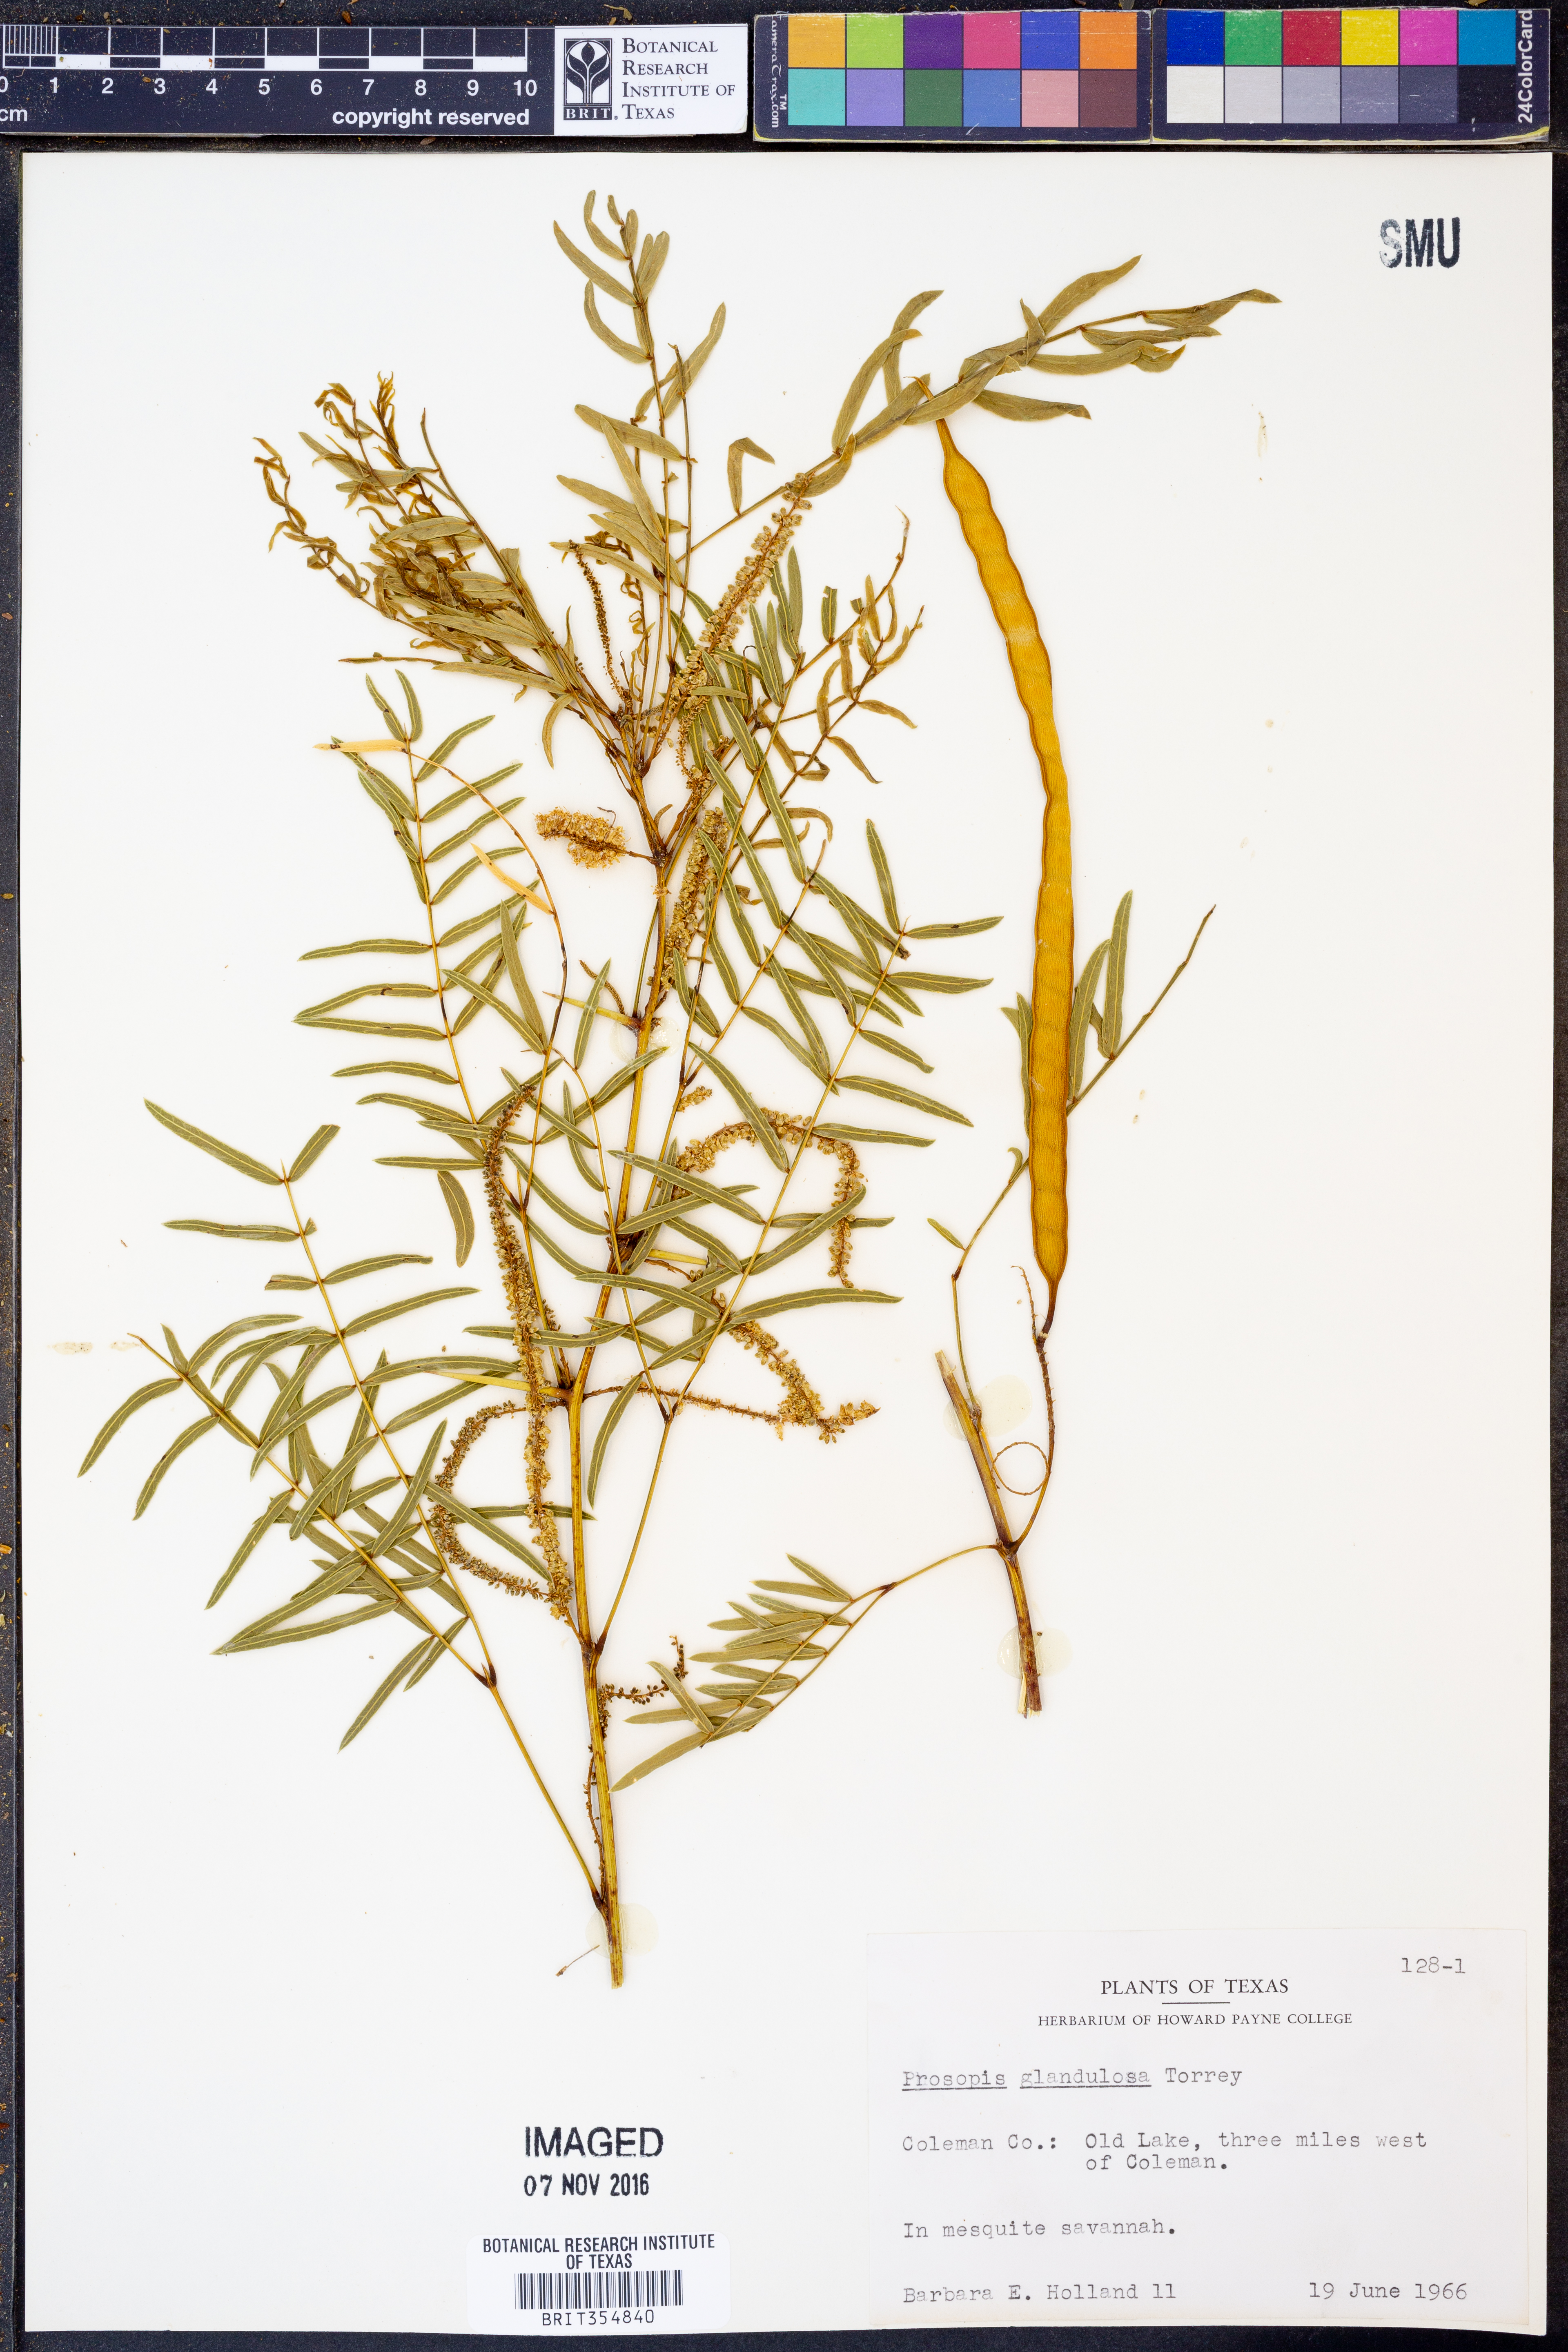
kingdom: Plantae
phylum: Tracheophyta
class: Magnoliopsida
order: Fabales
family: Fabaceae
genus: Prosopis
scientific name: Prosopis glandulosa
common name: Honey mesquite
